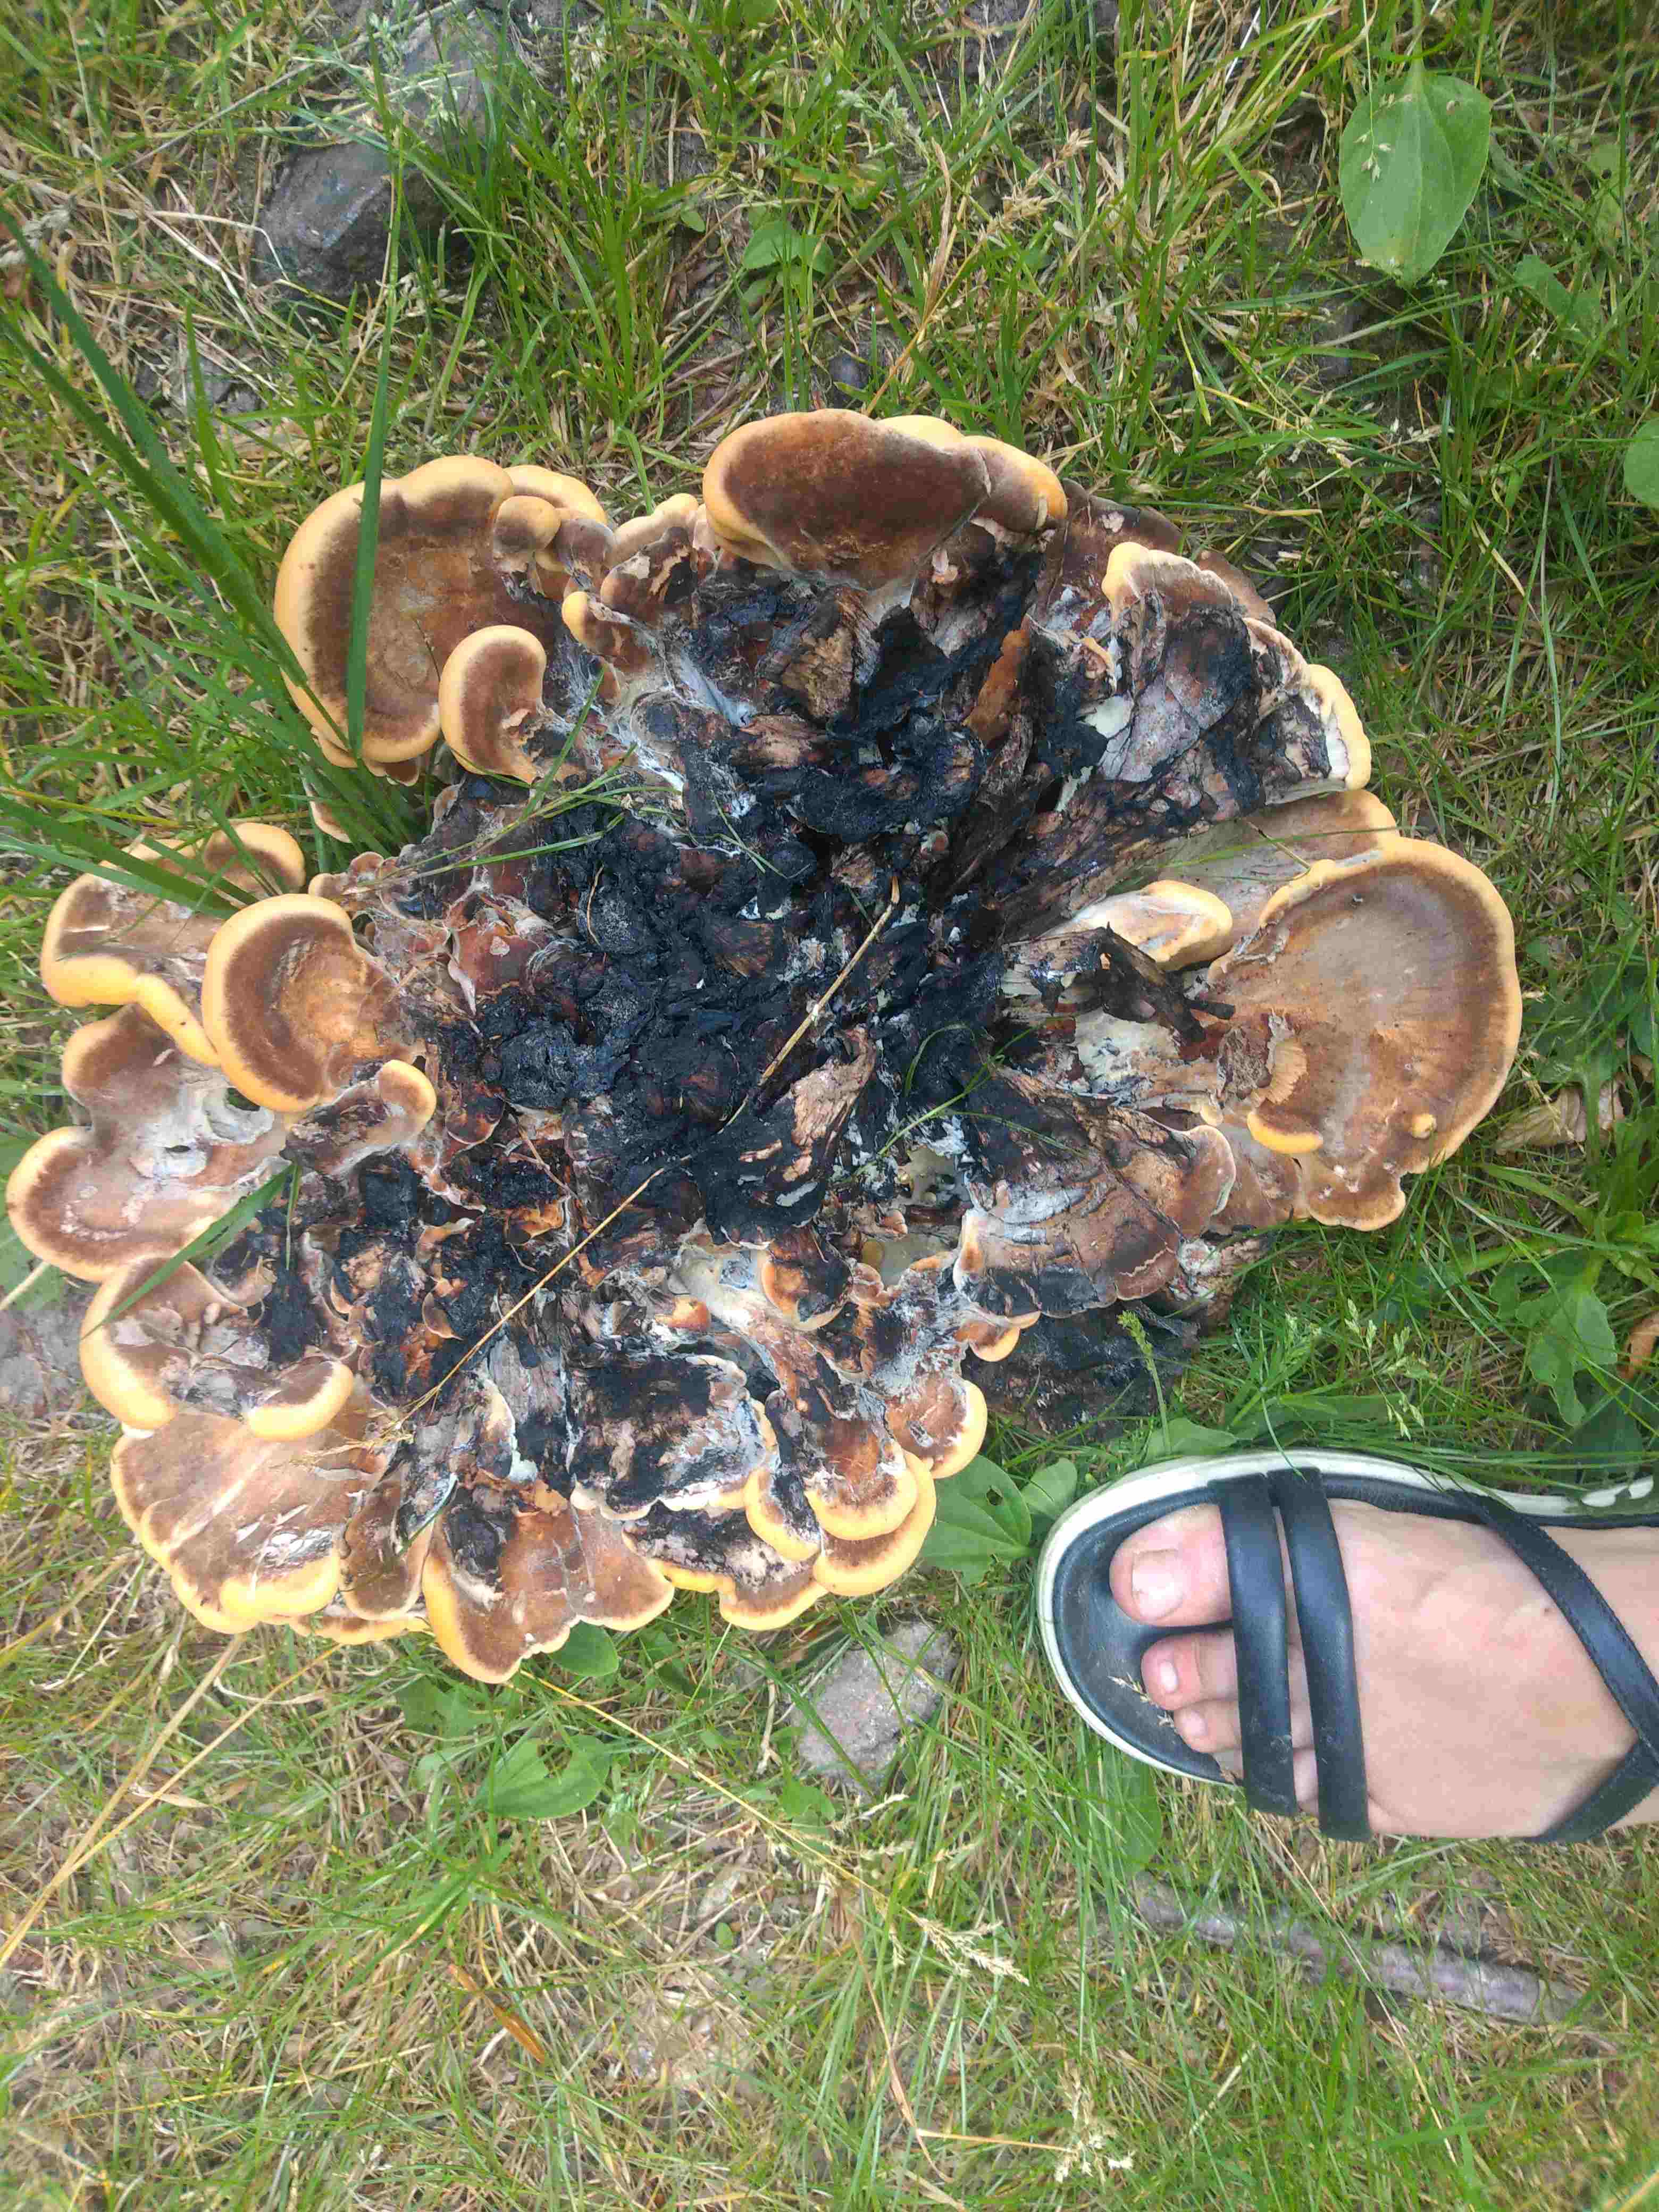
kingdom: Fungi
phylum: Basidiomycota
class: Agaricomycetes
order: Polyporales
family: Meripilaceae
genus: Meripilus
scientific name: Meripilus giganteus
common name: kæmpeporesvamp
